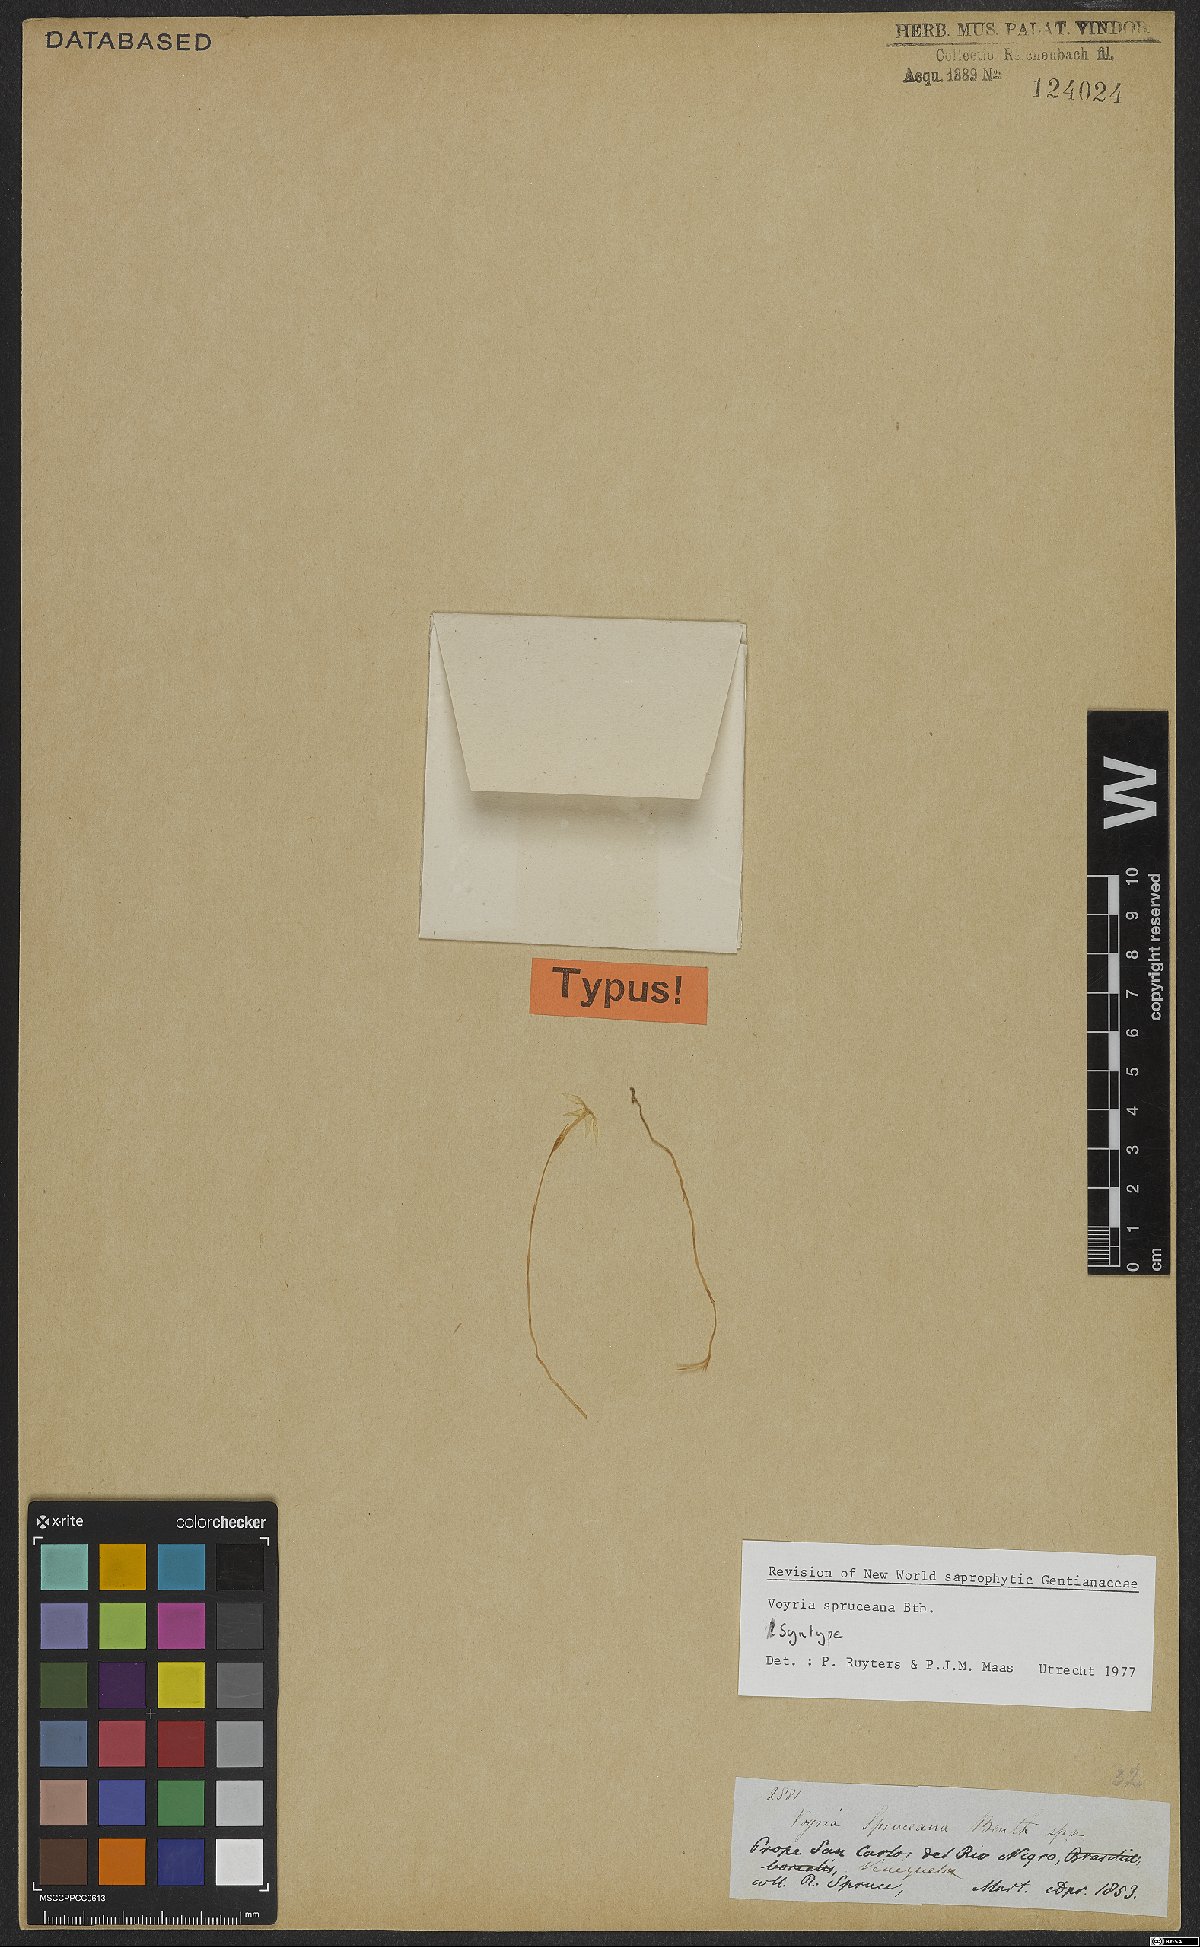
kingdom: Plantae
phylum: Tracheophyta
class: Magnoliopsida
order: Gentianales
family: Gentianaceae
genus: Voyria
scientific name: Voyria spruceana
